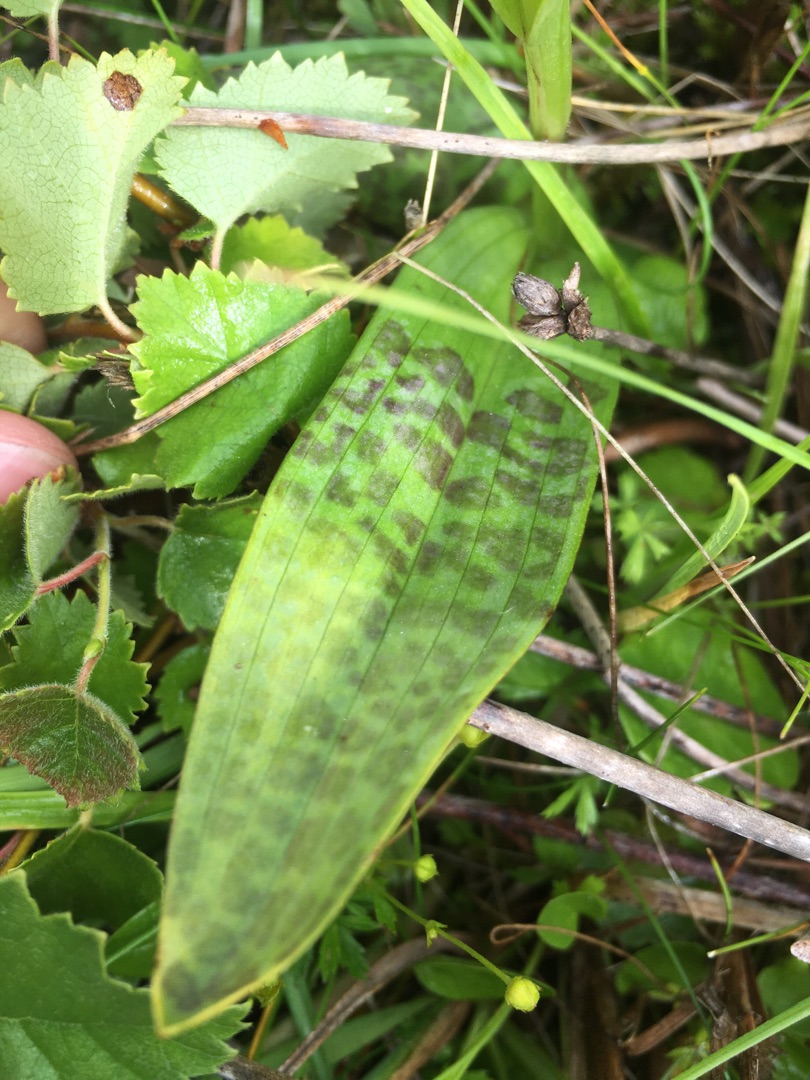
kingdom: Plantae
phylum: Tracheophyta
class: Liliopsida
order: Asparagales
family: Orchidaceae
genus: Dactylorhiza
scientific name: Dactylorhiza majalis
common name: Maj-gøgeurt
